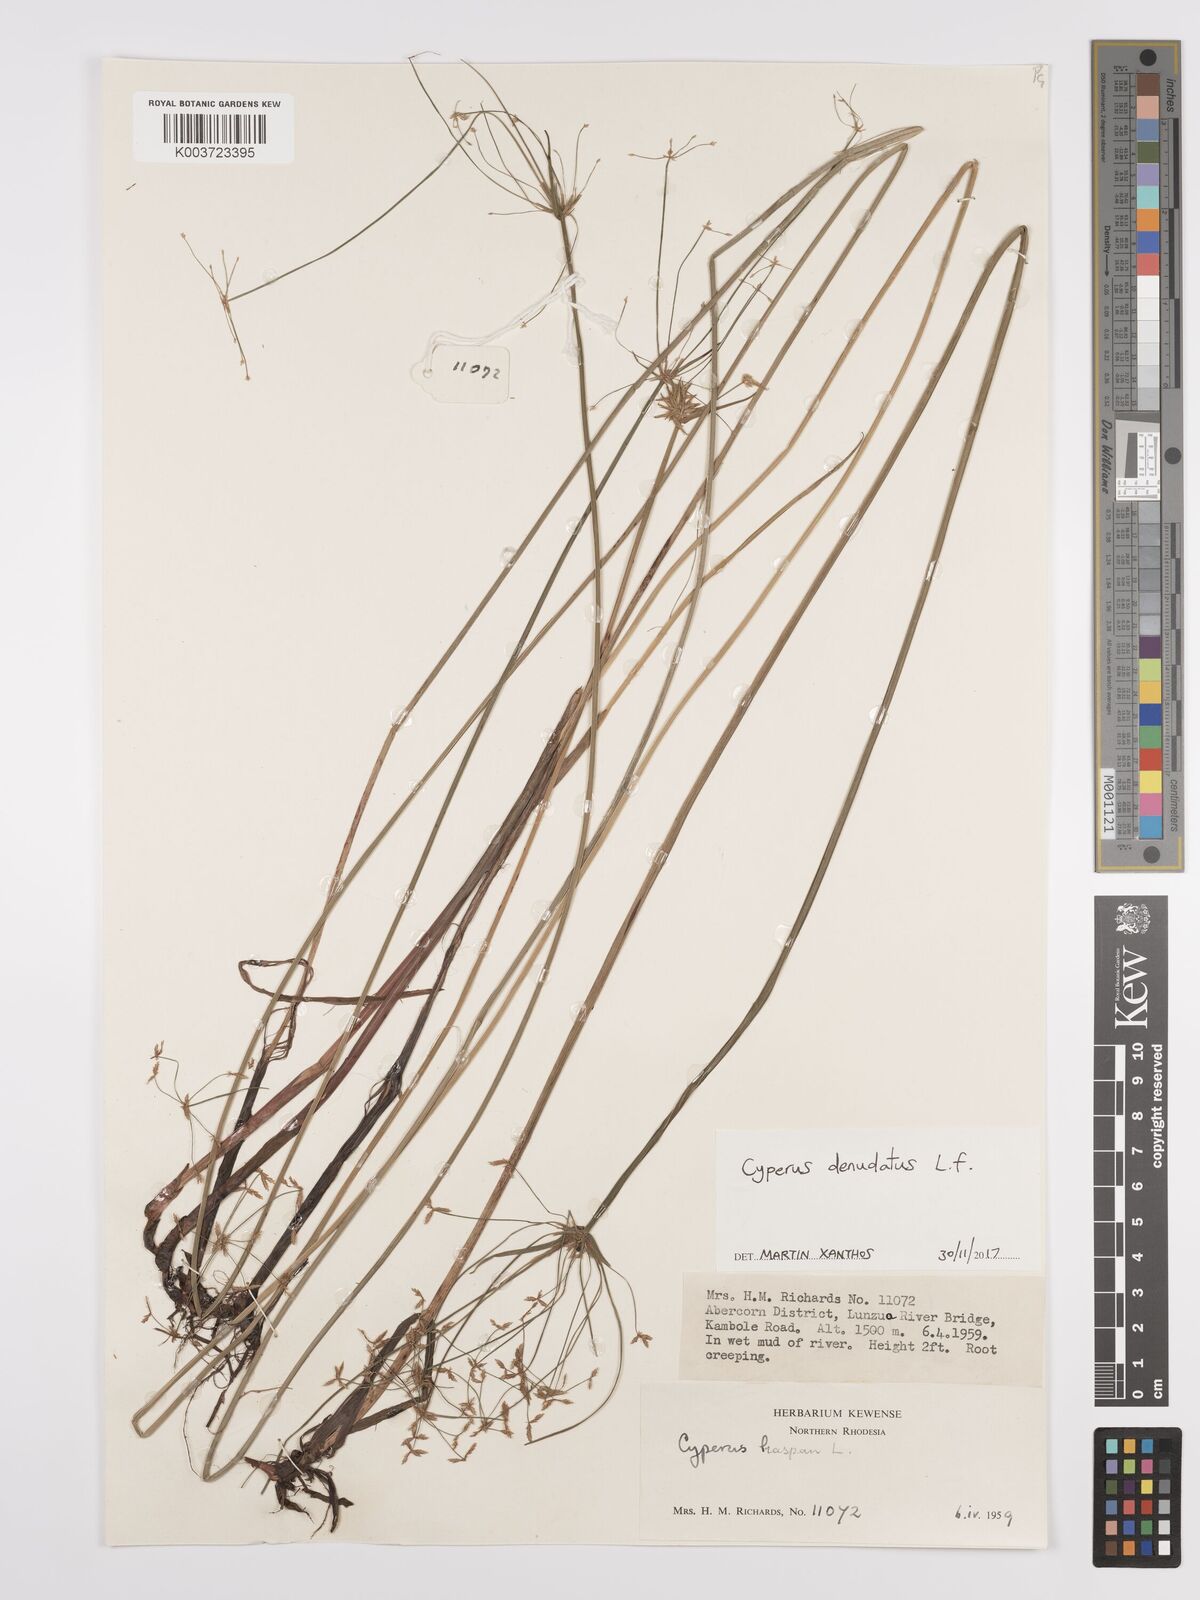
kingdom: Plantae
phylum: Tracheophyta
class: Liliopsida
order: Poales
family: Cyperaceae
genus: Cyperus
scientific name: Cyperus denudatus
